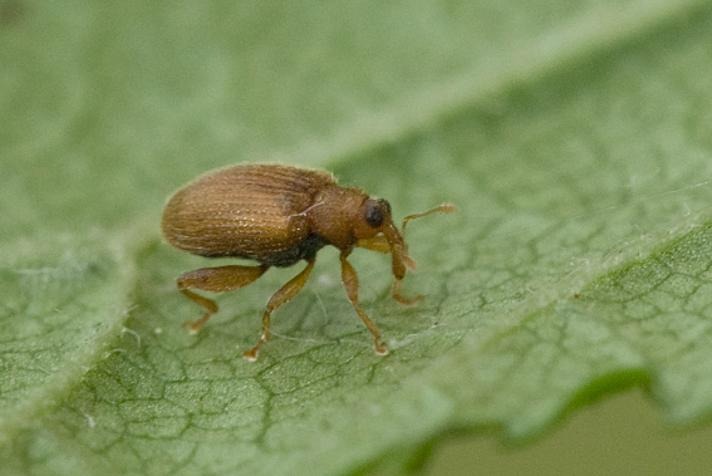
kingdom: Animalia
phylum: Arthropoda
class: Insecta
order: Coleoptera
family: Curculionidae
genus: Orchestes
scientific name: Orchestes betuleti
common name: Elmeloppe
